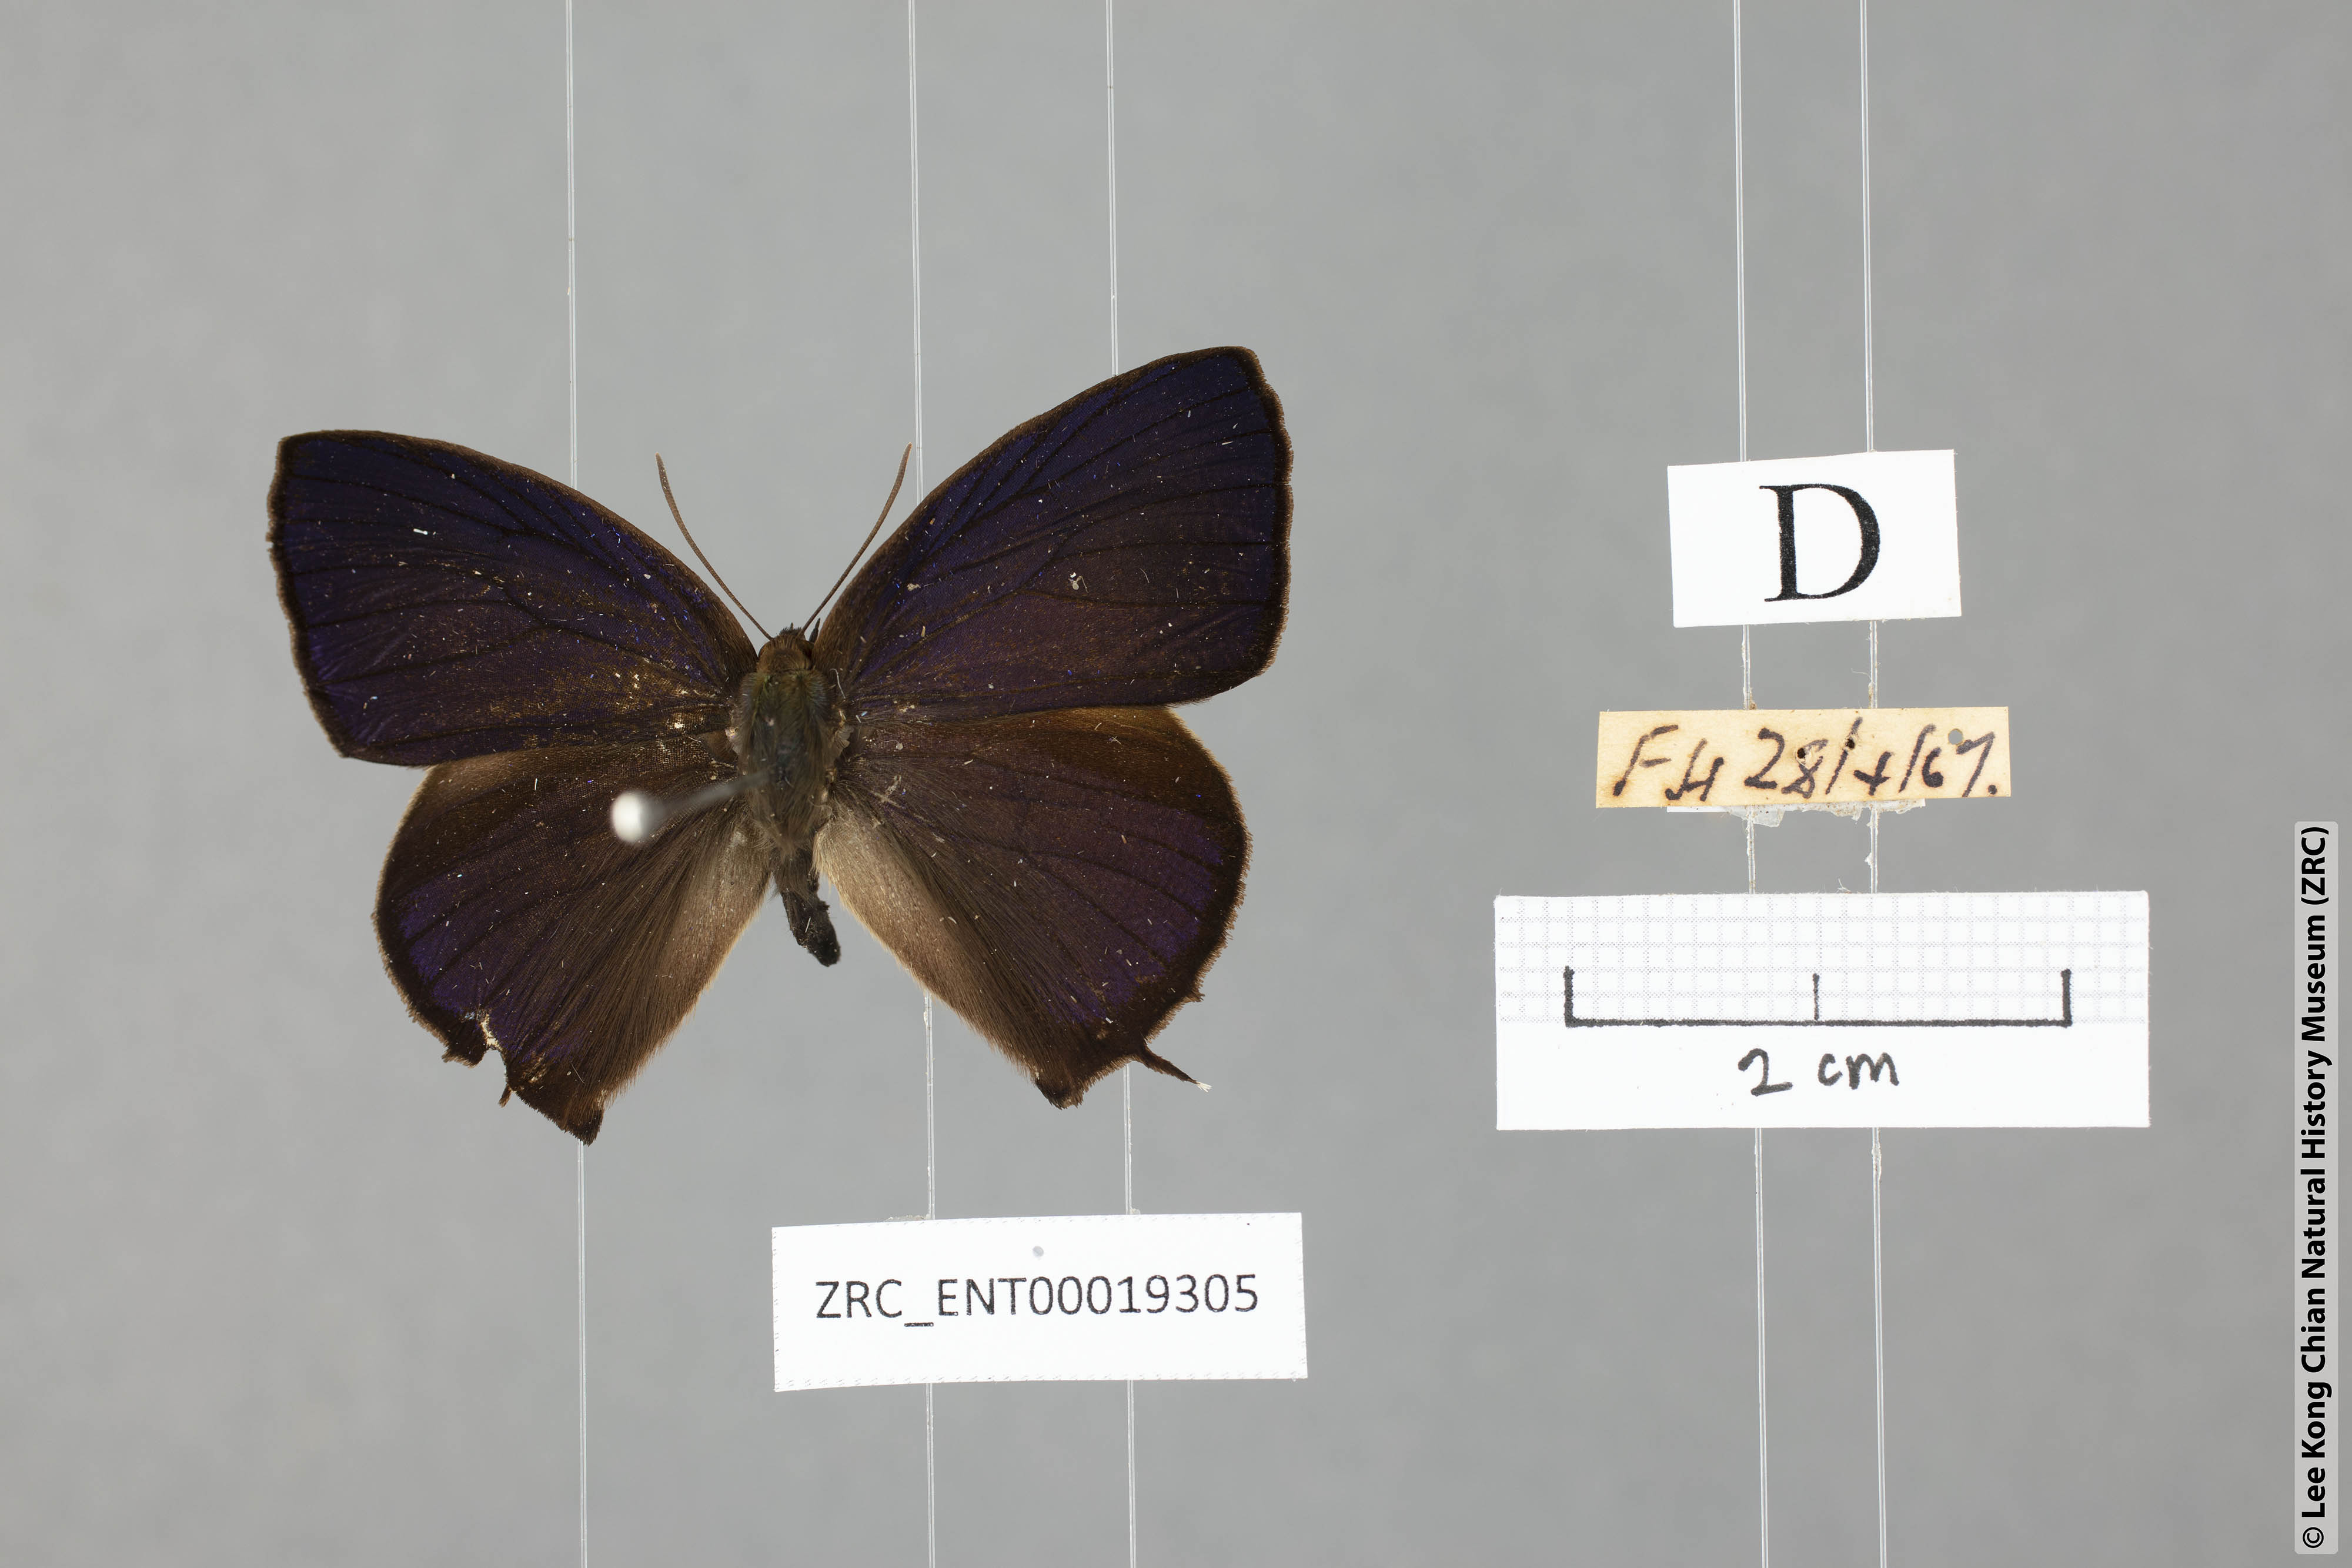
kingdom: Animalia
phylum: Arthropoda
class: Insecta
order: Lepidoptera
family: Lycaenidae
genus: Arhopala
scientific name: Arhopala bazalus
